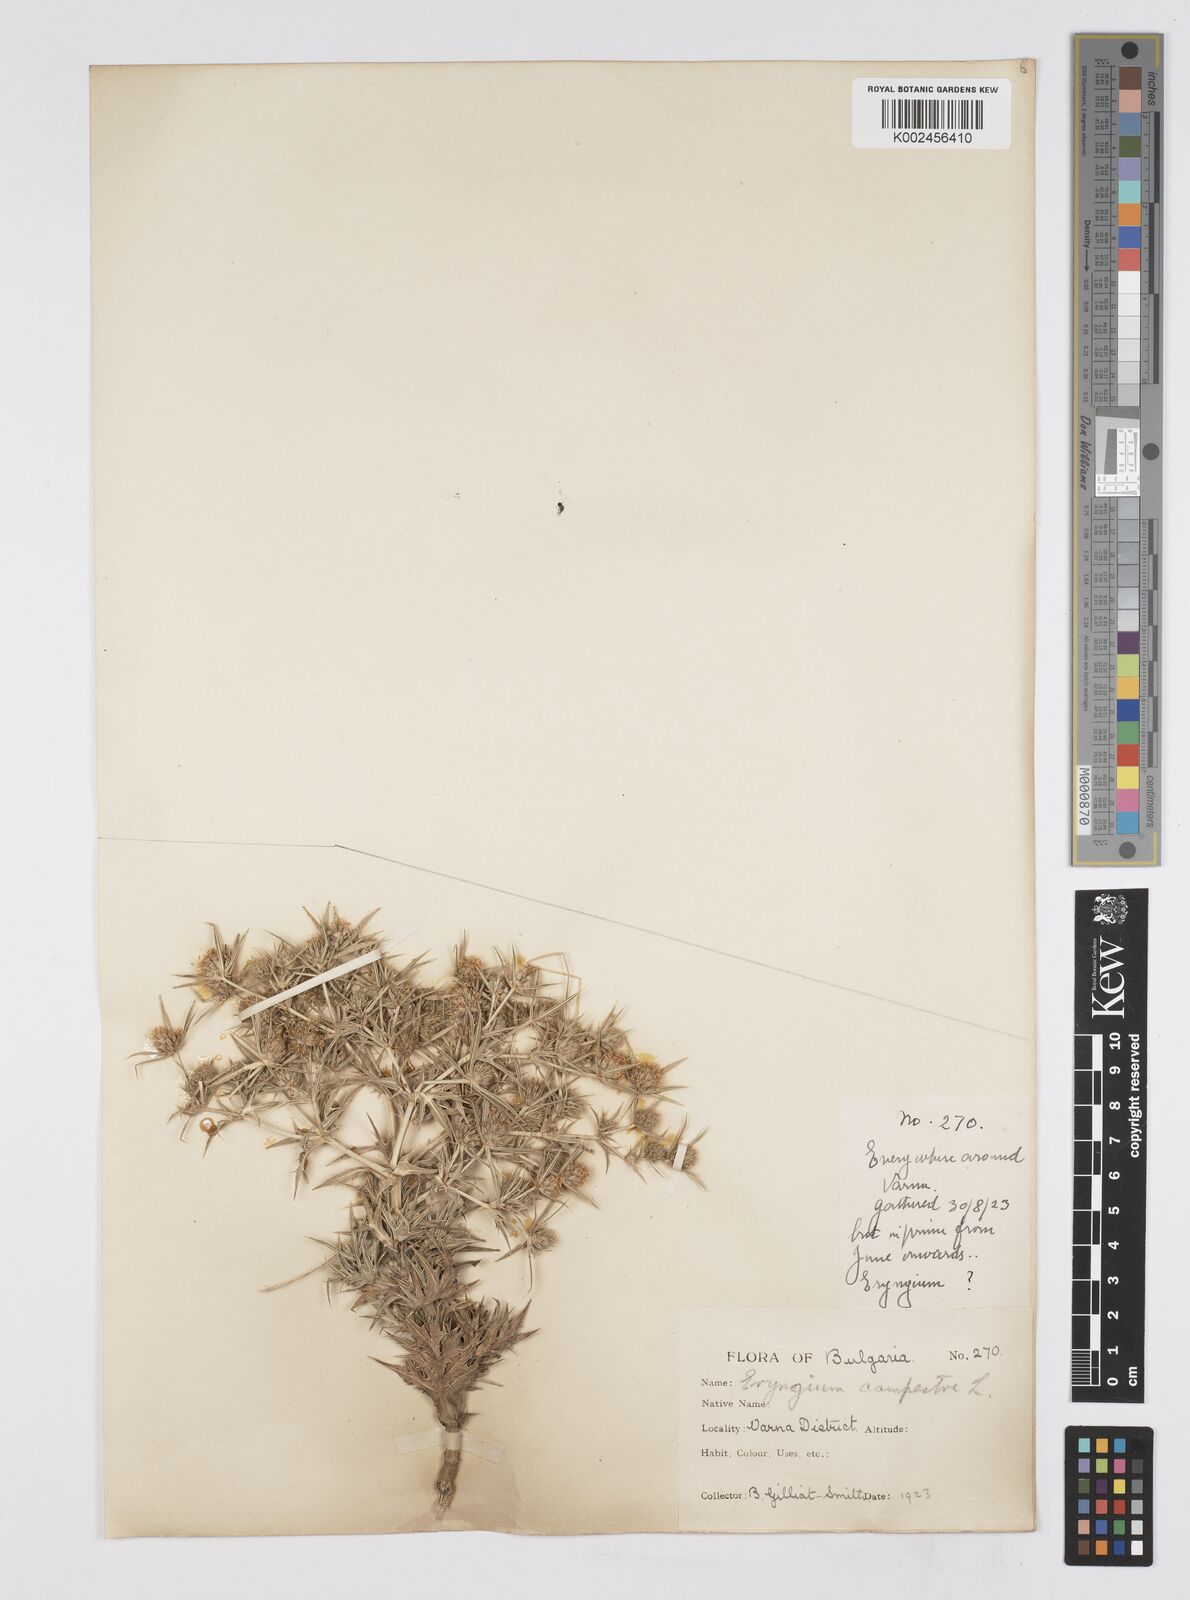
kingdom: Plantae
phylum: Tracheophyta
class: Magnoliopsida
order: Apiales
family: Apiaceae
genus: Eryngium
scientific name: Eryngium campestre
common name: Field eryngo
